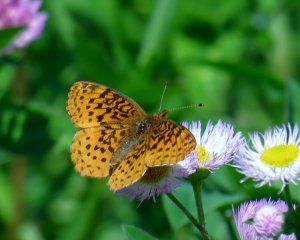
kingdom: Animalia
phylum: Arthropoda
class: Insecta
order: Lepidoptera
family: Nymphalidae
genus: Clossiana
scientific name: Clossiana toddi
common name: Meadow Fritillary
